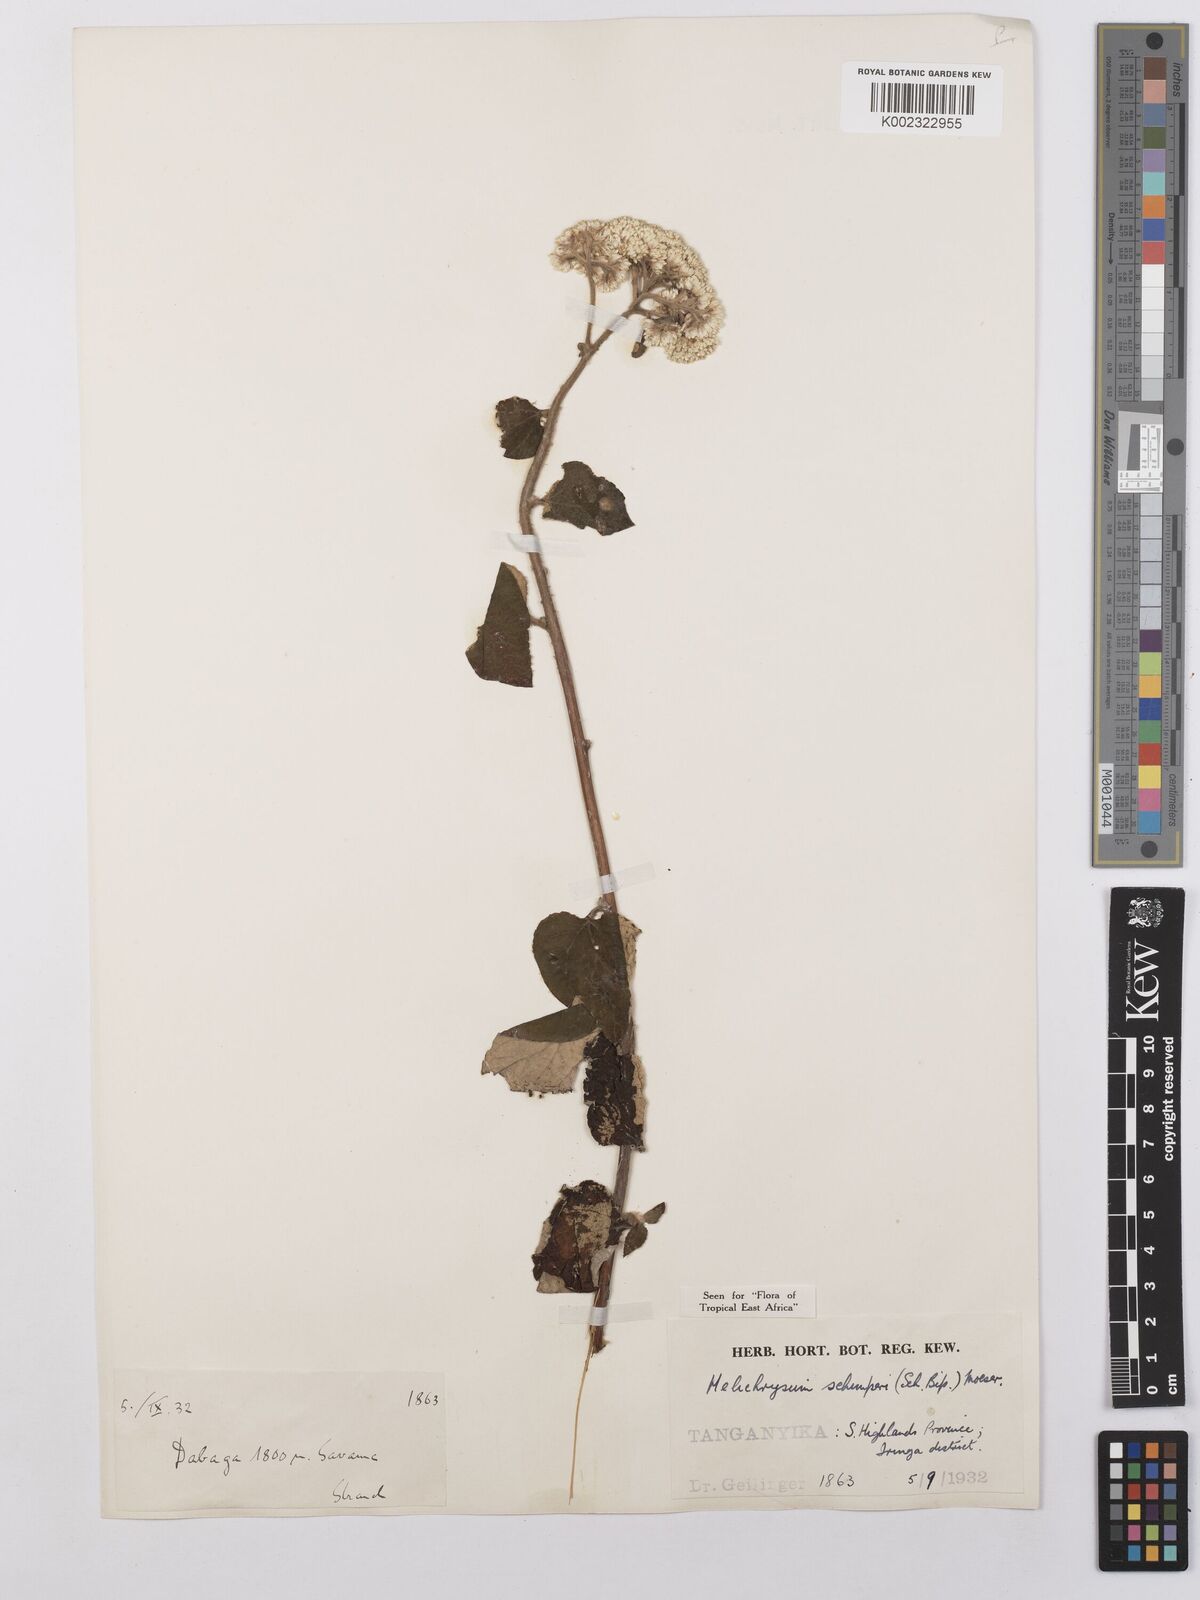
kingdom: Plantae
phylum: Tracheophyta
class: Magnoliopsida
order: Asterales
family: Asteraceae
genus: Helichrysum
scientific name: Helichrysum schimperi
